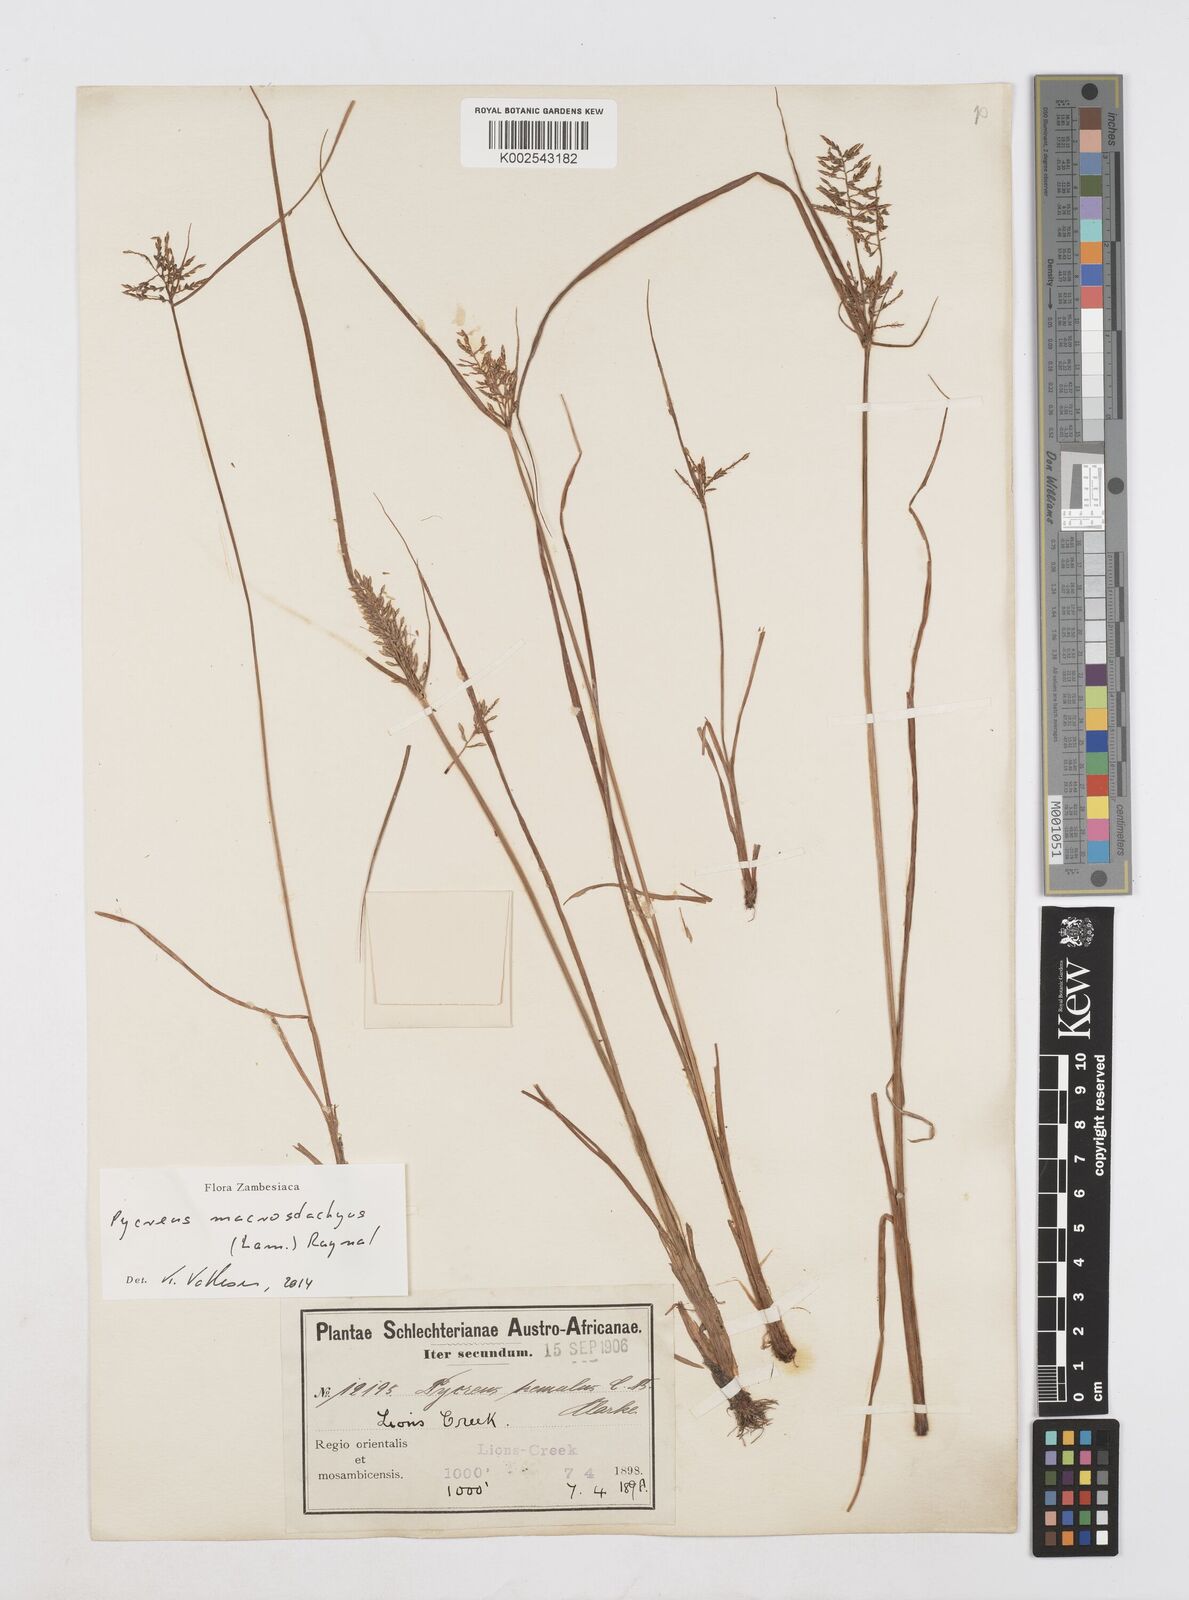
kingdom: Plantae
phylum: Tracheophyta
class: Liliopsida
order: Poales
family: Cyperaceae
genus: Cyperus
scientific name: Cyperus macrostachyos
